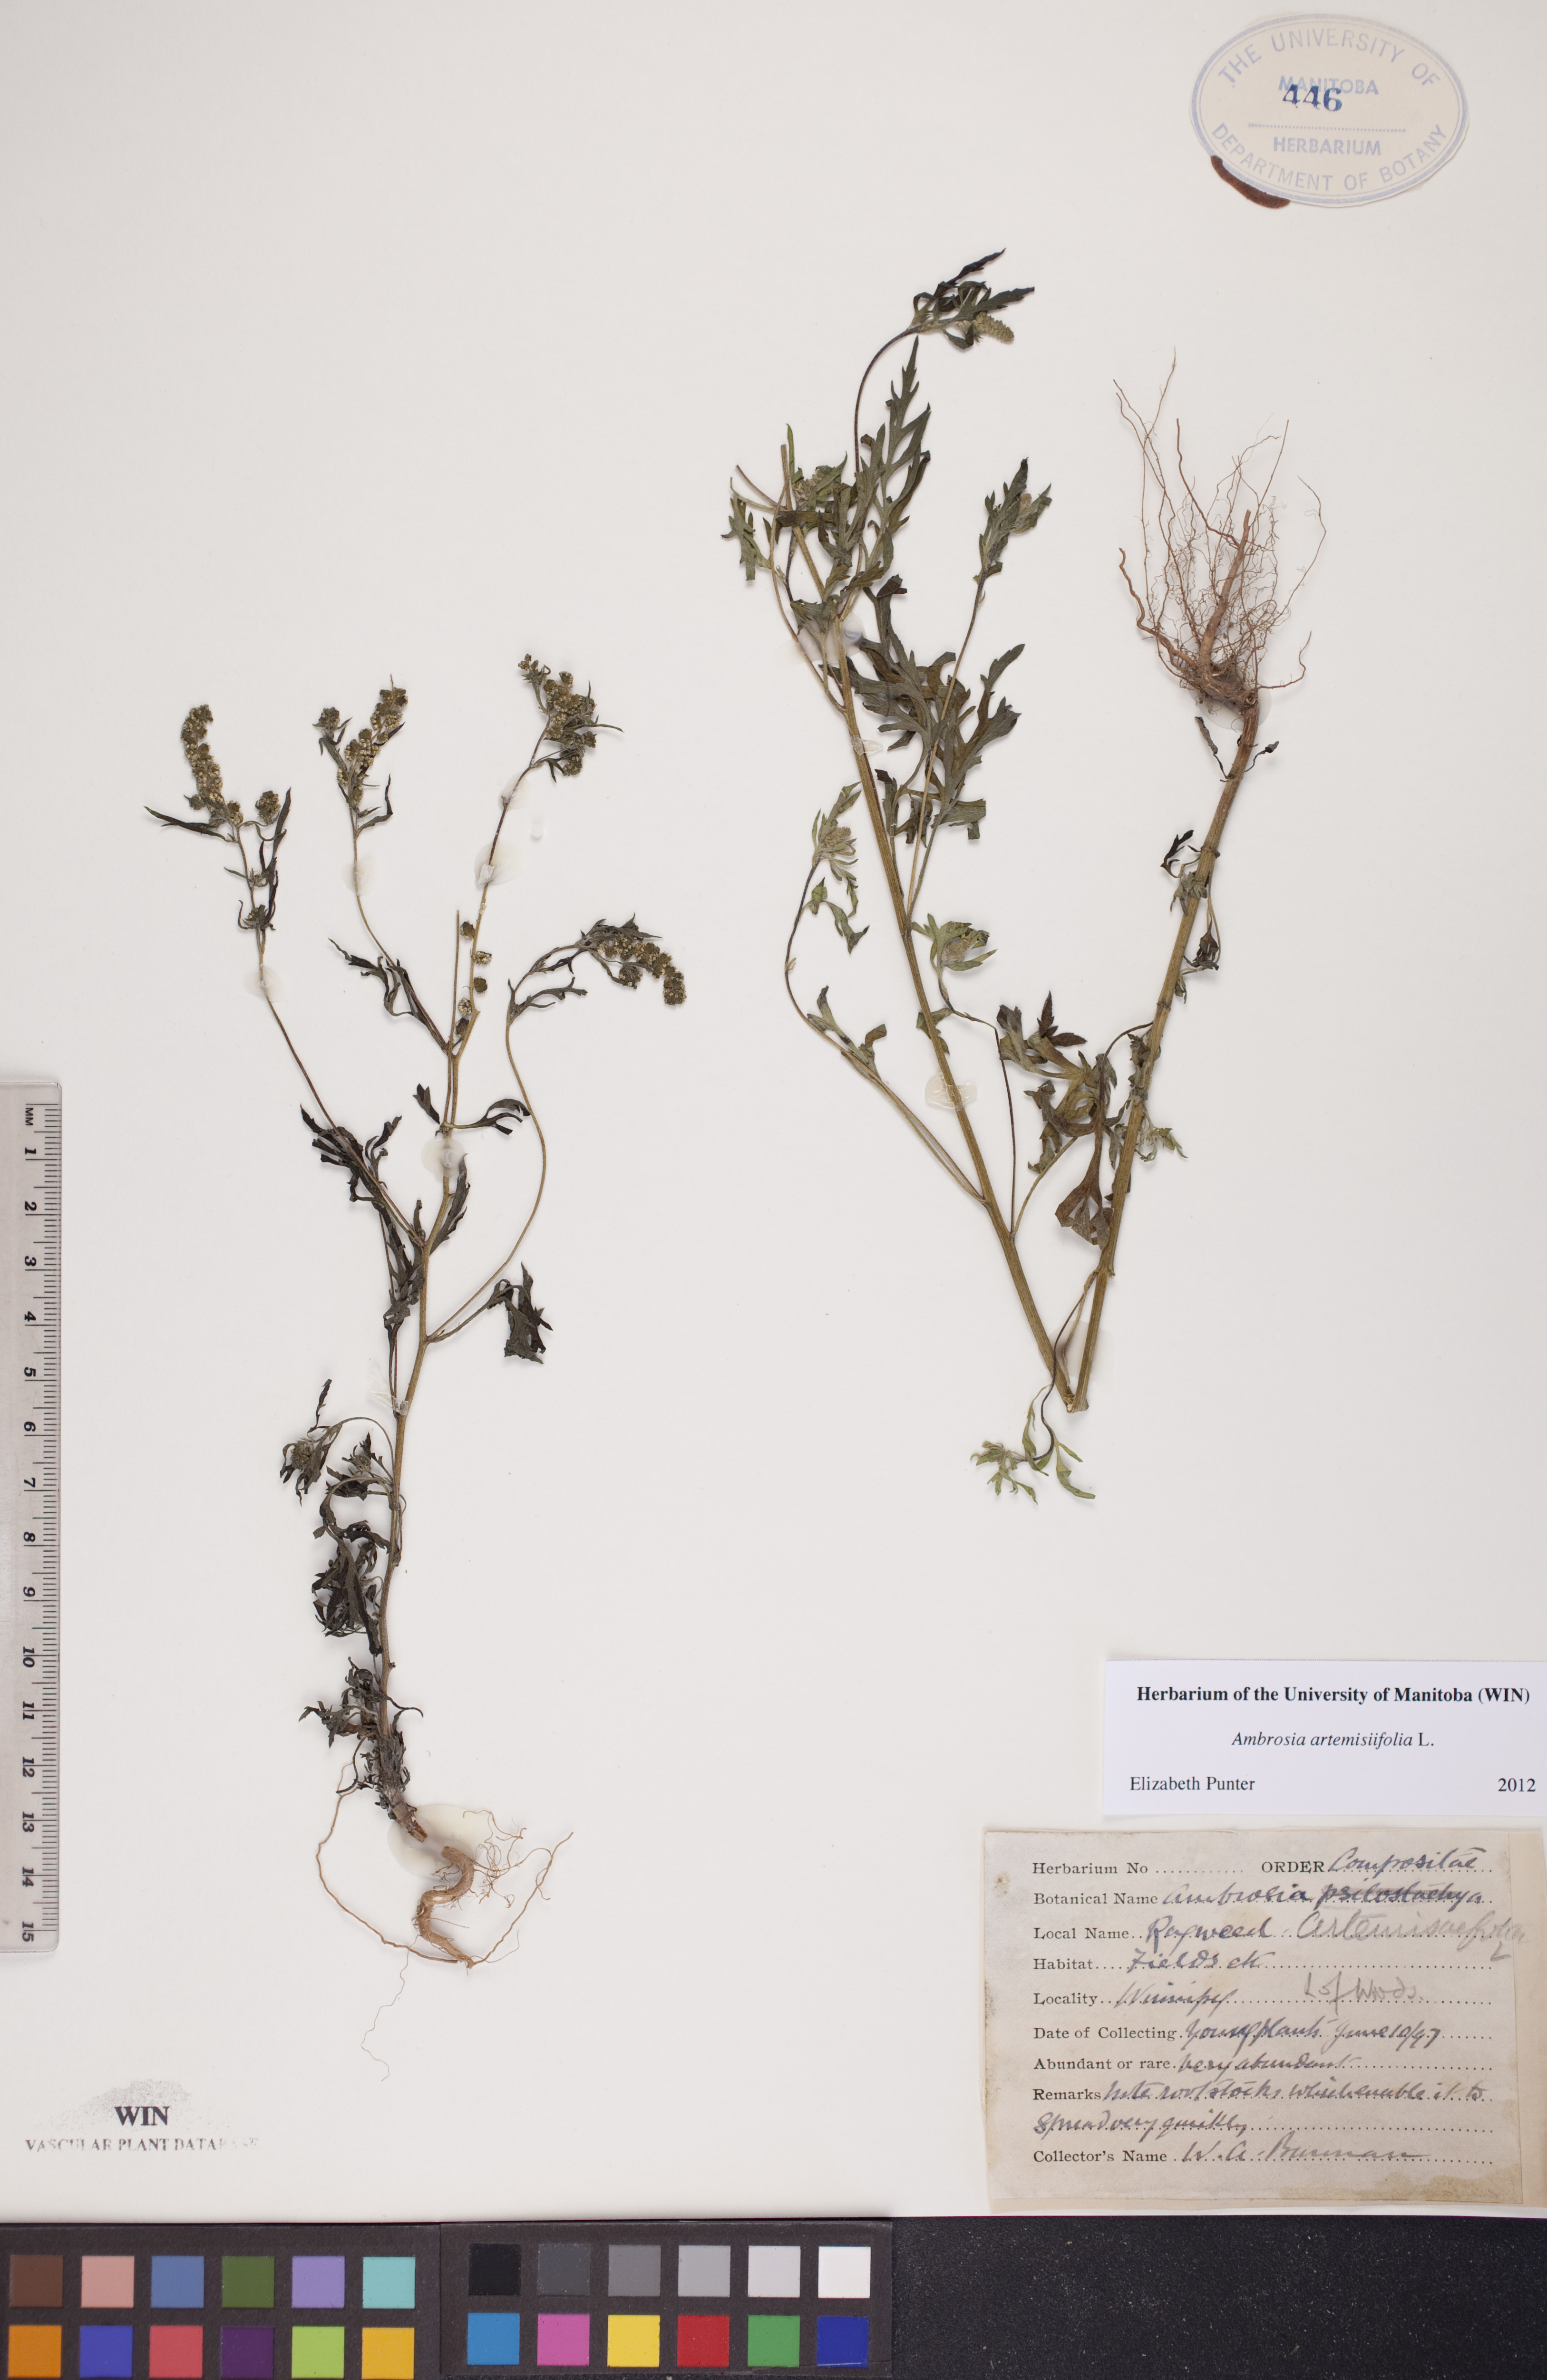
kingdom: Plantae
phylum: Tracheophyta
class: Magnoliopsida
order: Asterales
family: Asteraceae
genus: Ambrosia
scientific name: Ambrosia artemisiifolia
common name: Annual ragweed
